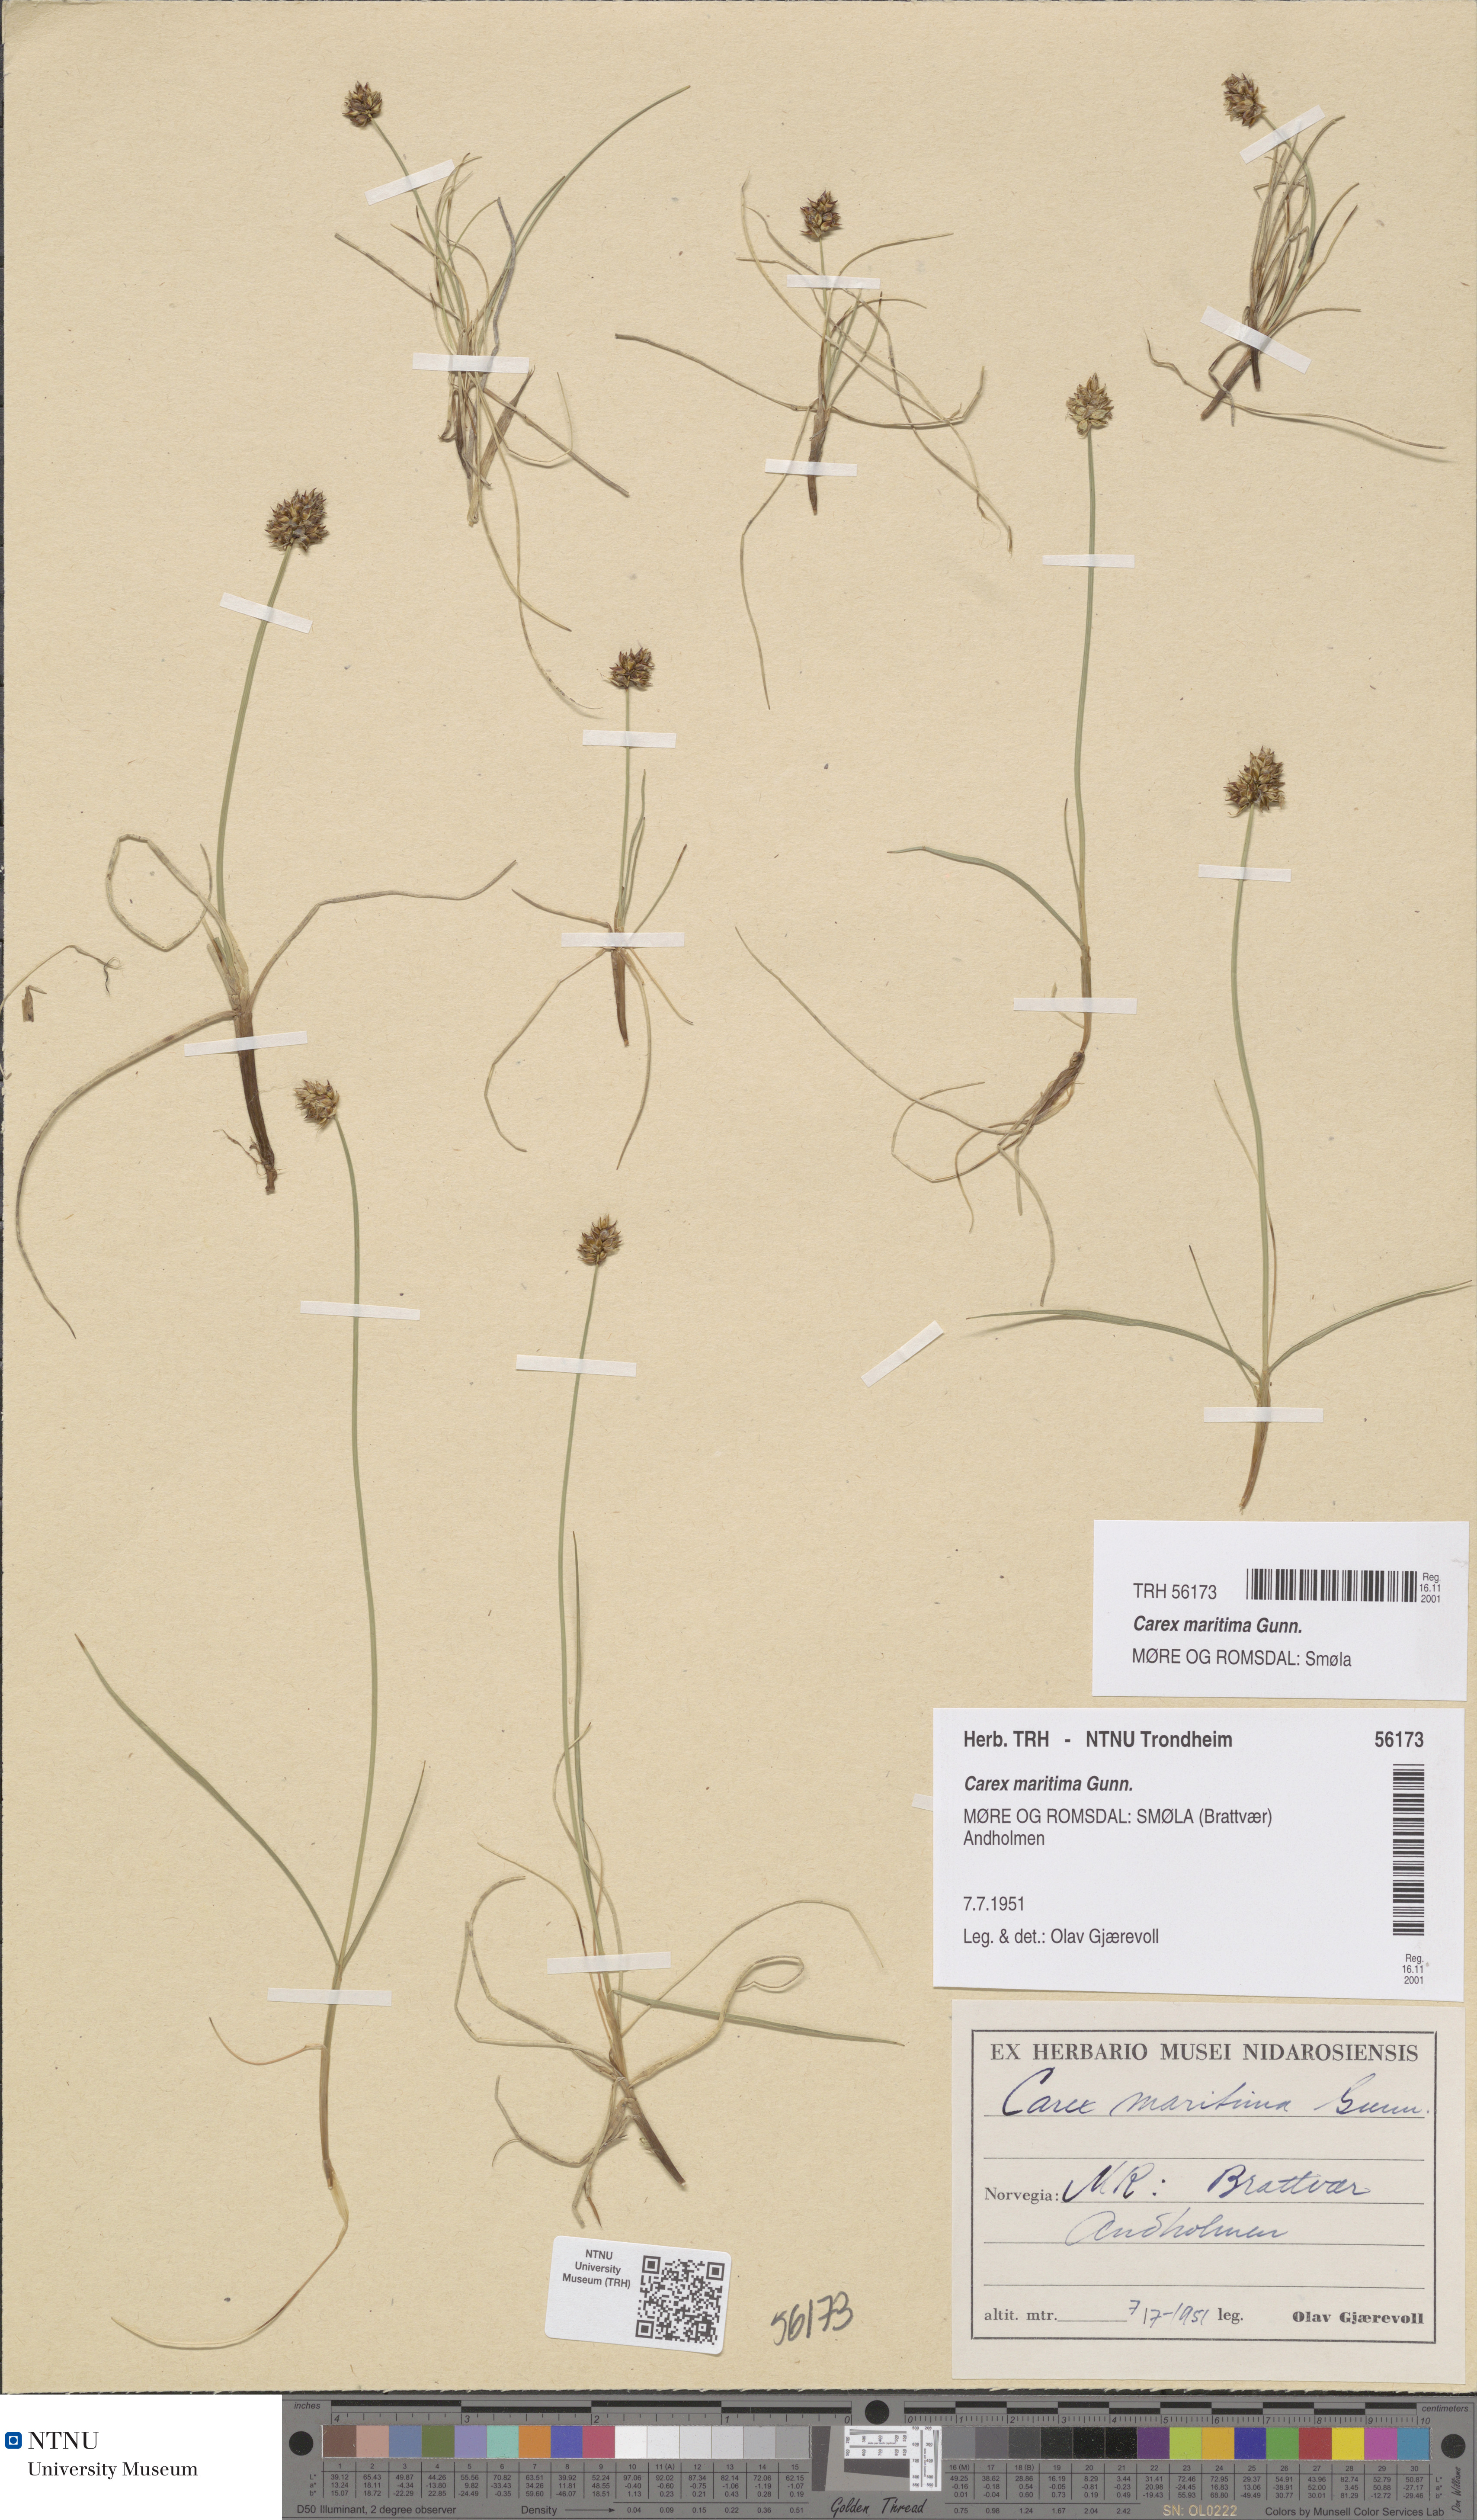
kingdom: Plantae
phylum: Tracheophyta
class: Liliopsida
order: Poales
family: Cyperaceae
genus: Carex
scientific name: Carex maritima
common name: Curved sedge
